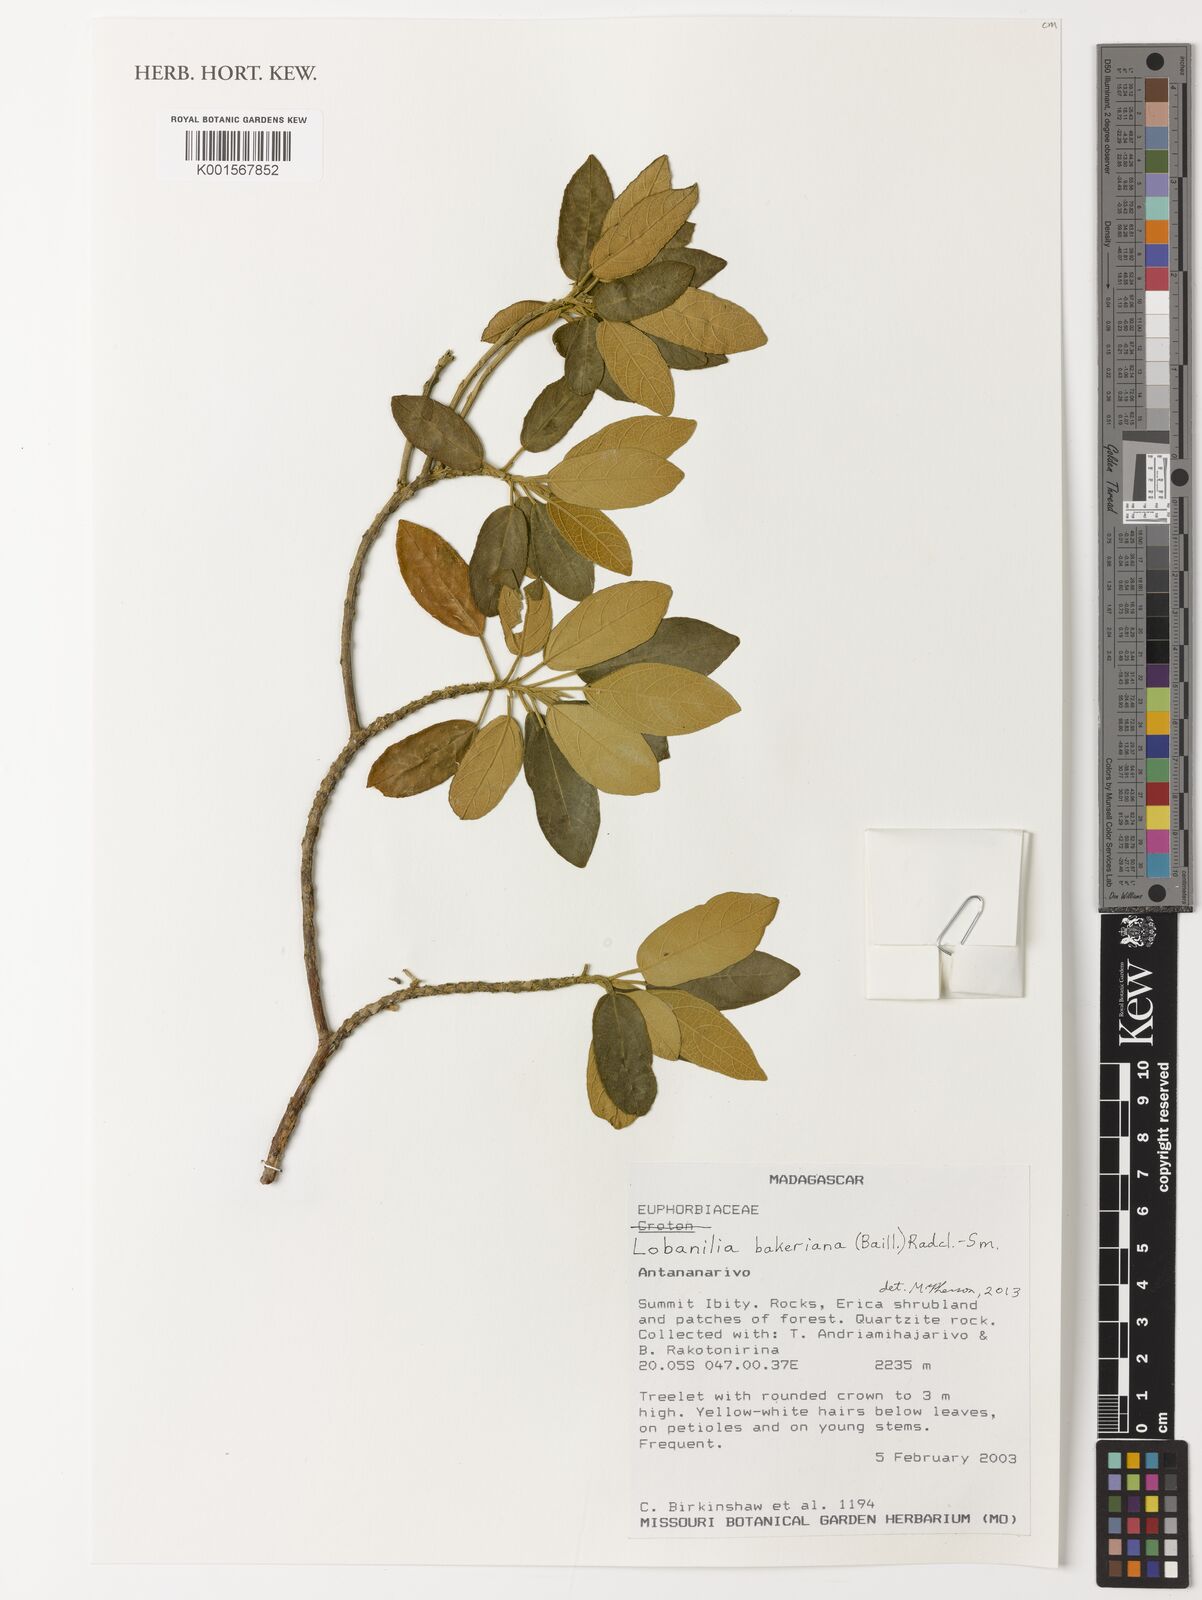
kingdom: Plantae
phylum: Tracheophyta
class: Magnoliopsida
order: Malpighiales
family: Euphorbiaceae
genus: Lobanilia
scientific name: Lobanilia bakeriana
